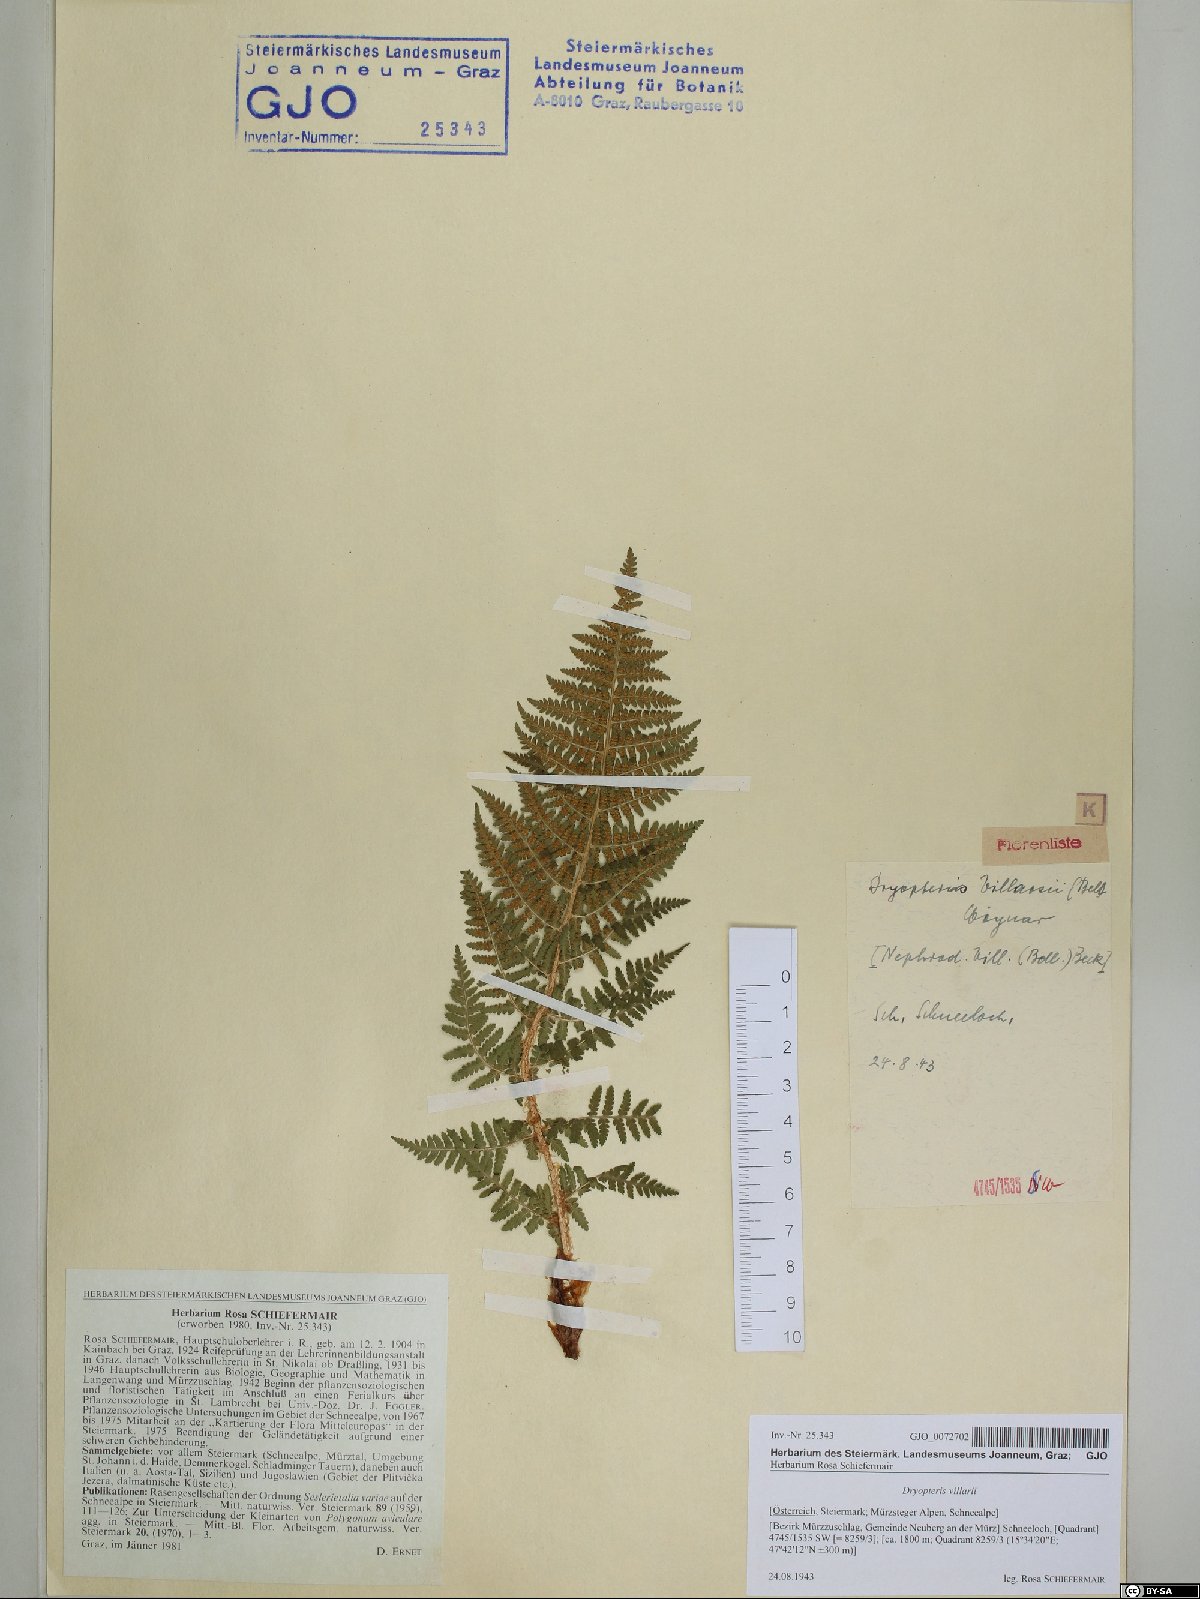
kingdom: Plantae
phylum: Tracheophyta
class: Polypodiopsida
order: Polypodiales
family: Dryopteridaceae
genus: Dryopteris
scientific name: Dryopteris villarii
